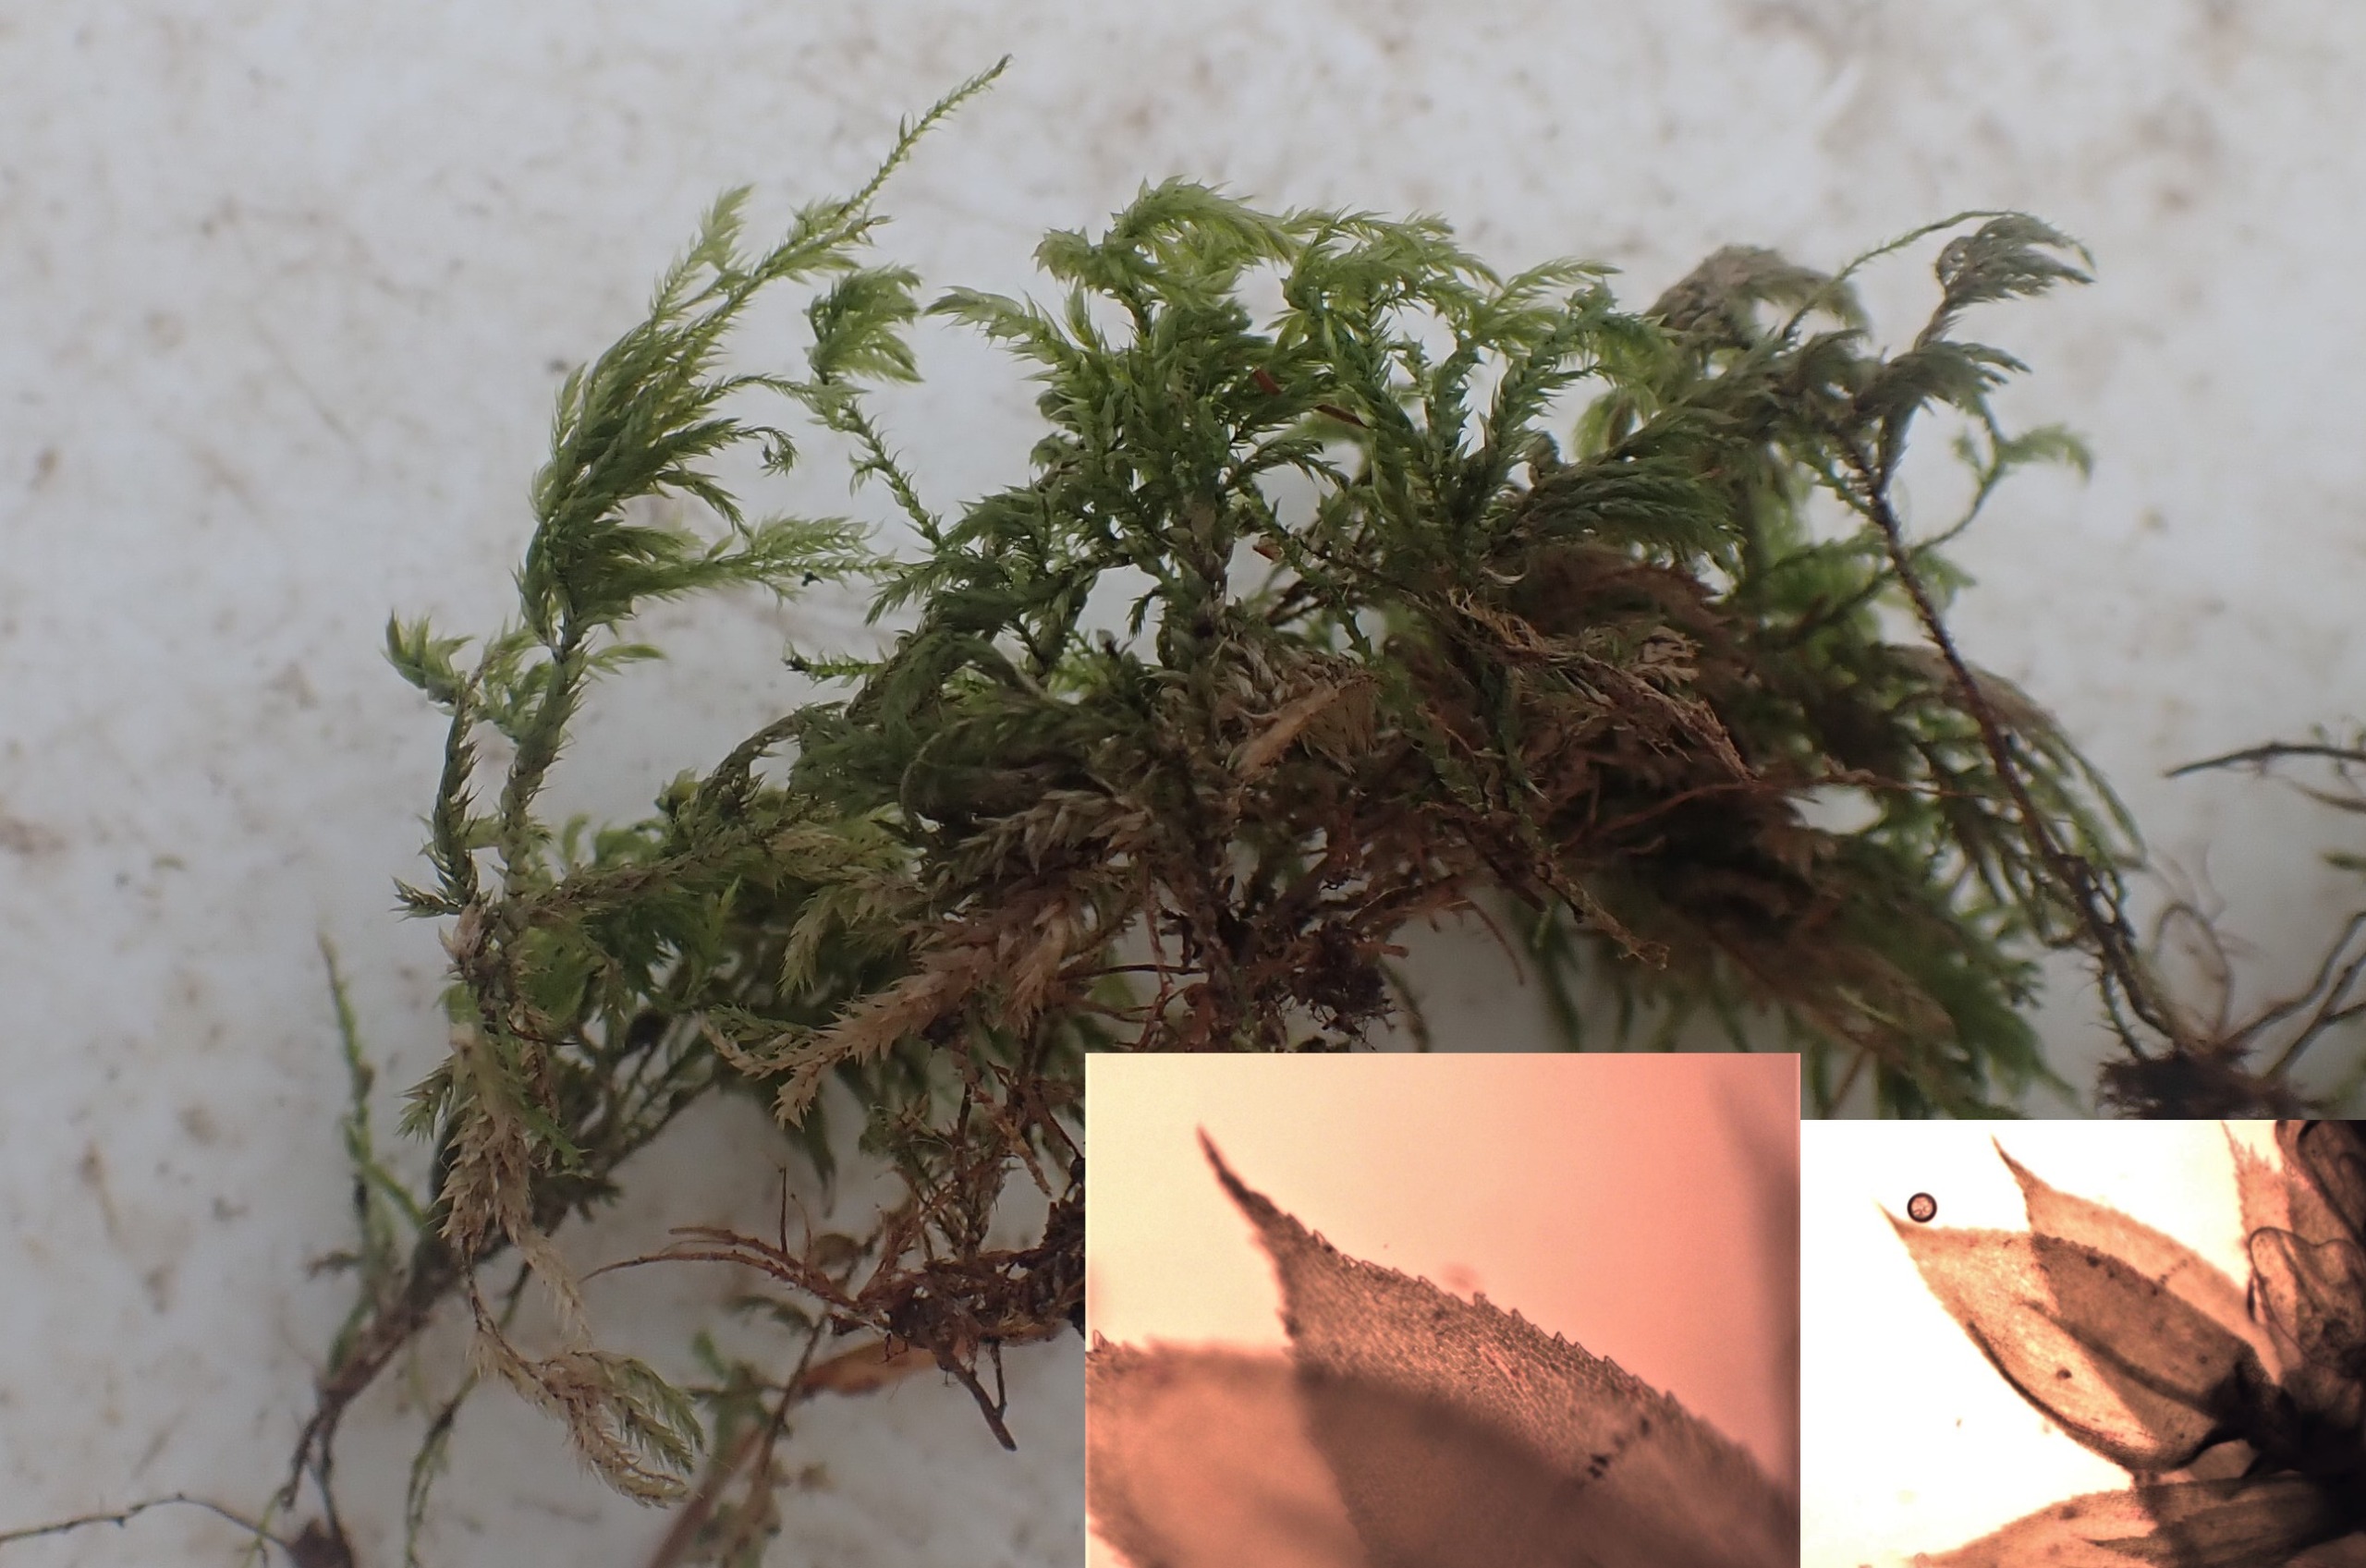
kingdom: Plantae
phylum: Bryophyta
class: Bryopsida
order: Hypnales
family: Lembophyllaceae
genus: Pseudisothecium
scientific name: Pseudisothecium myosuroides
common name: Slank stammemos
